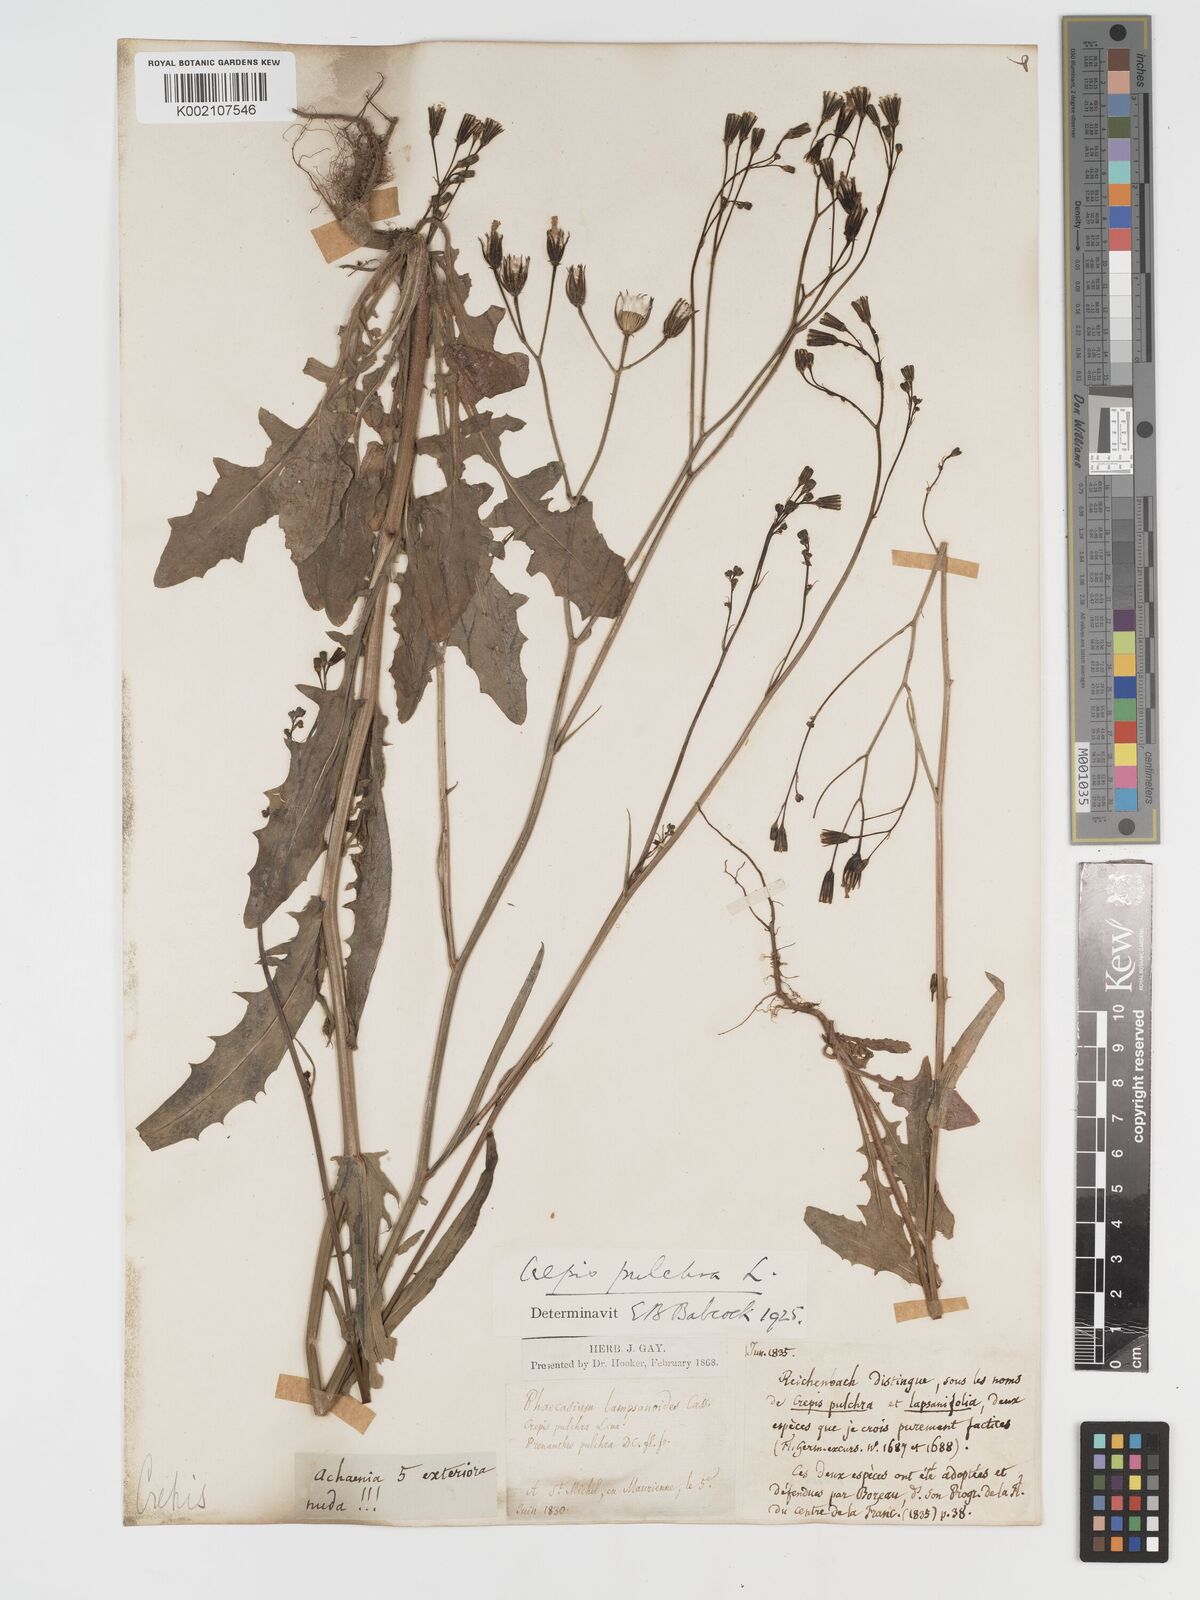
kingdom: Plantae
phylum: Tracheophyta
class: Magnoliopsida
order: Asterales
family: Asteraceae
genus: Crepis
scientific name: Crepis pulchra
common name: Hawk's-beard
